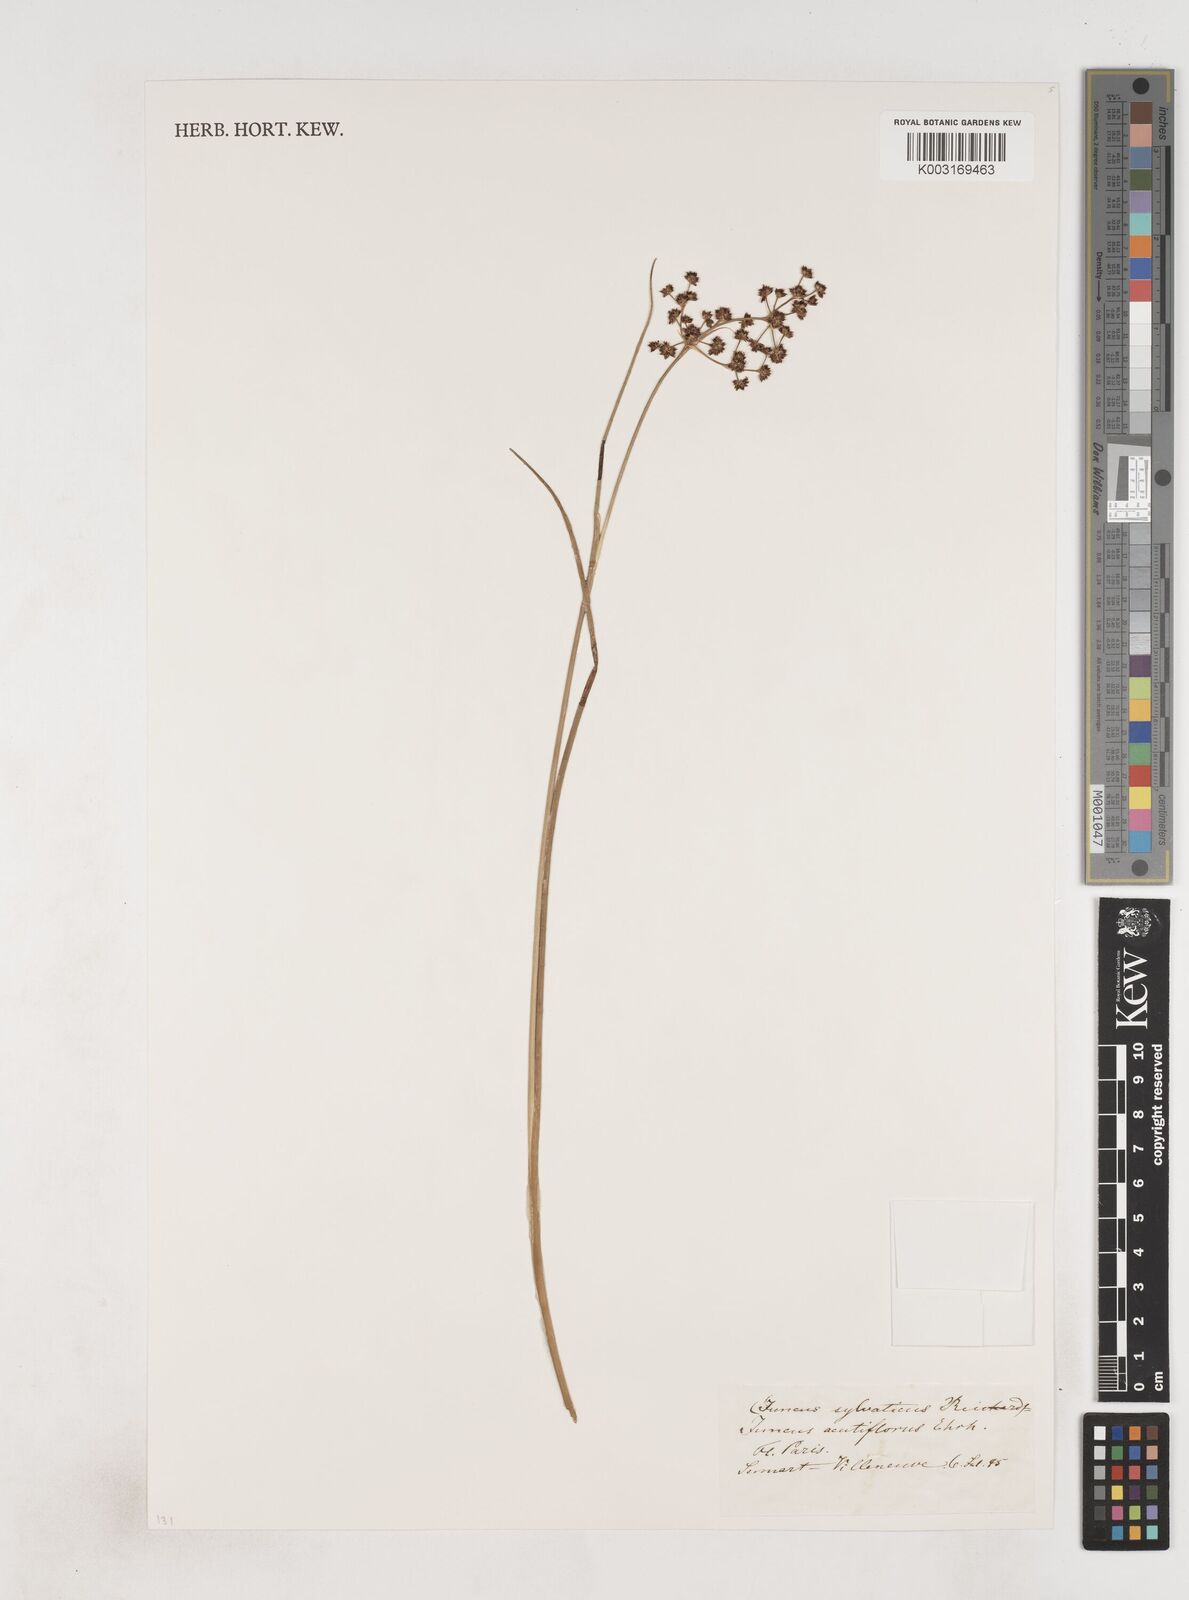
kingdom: Plantae
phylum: Tracheophyta
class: Liliopsida
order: Poales
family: Juncaceae
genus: Juncus
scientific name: Juncus acutiflorus
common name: Sharp-flowered rush
